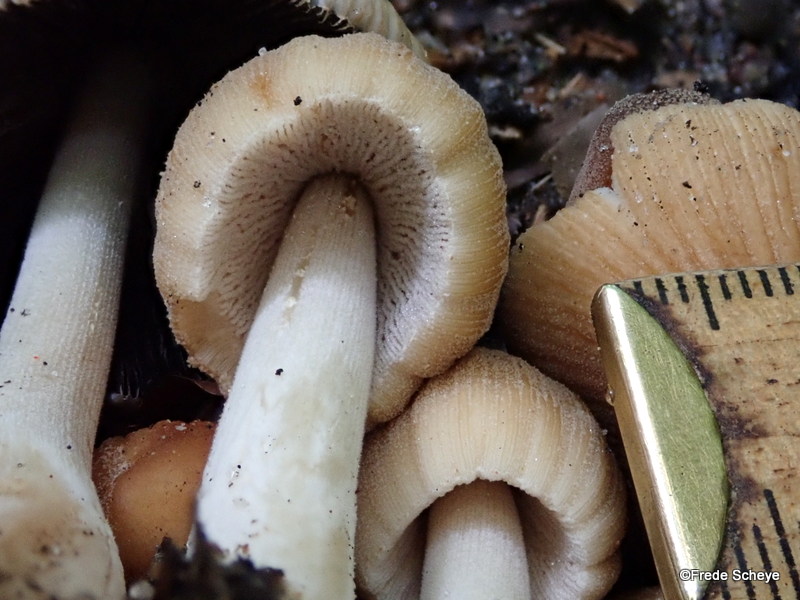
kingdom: Fungi
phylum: Basidiomycota
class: Agaricomycetes
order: Agaricales
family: Psathyrellaceae
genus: Coprinellus
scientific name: Coprinellus micaceus
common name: glimmer-blækhat
